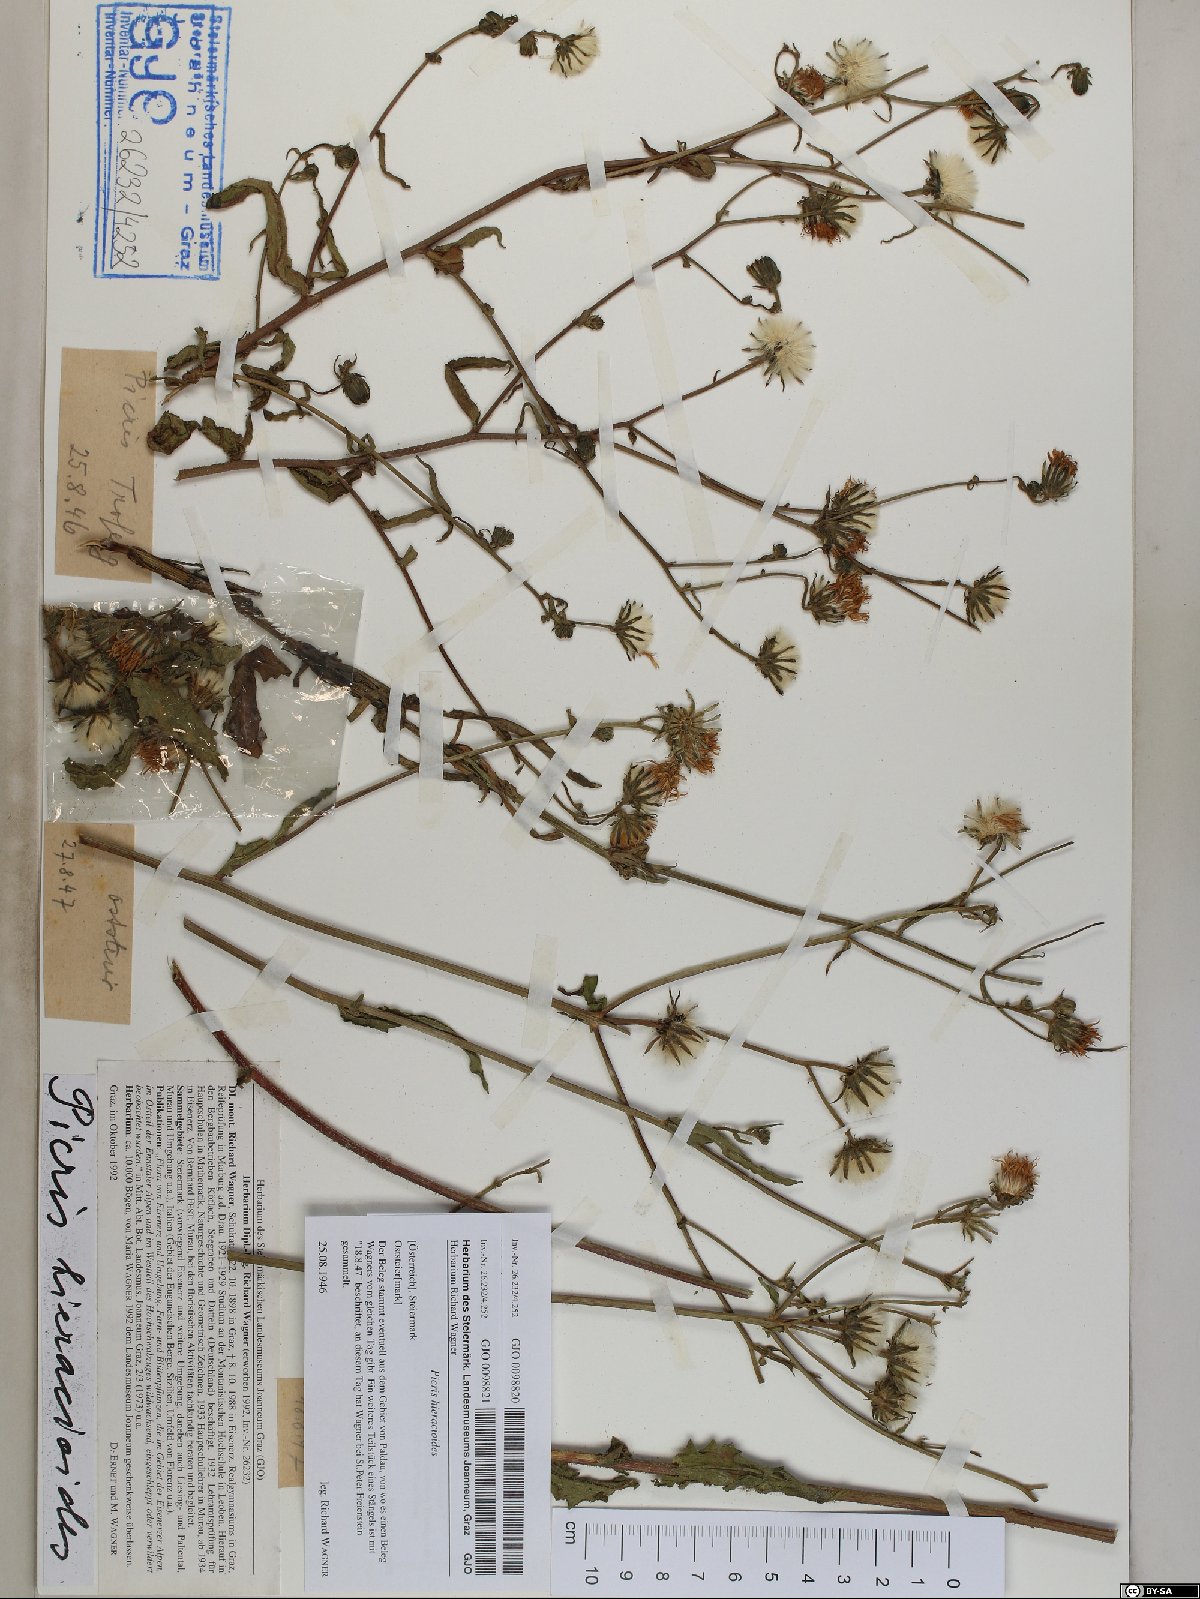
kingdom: Plantae
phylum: Tracheophyta
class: Magnoliopsida
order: Asterales
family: Asteraceae
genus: Picris
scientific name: Picris hieracioides
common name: Hawkweed oxtongue
